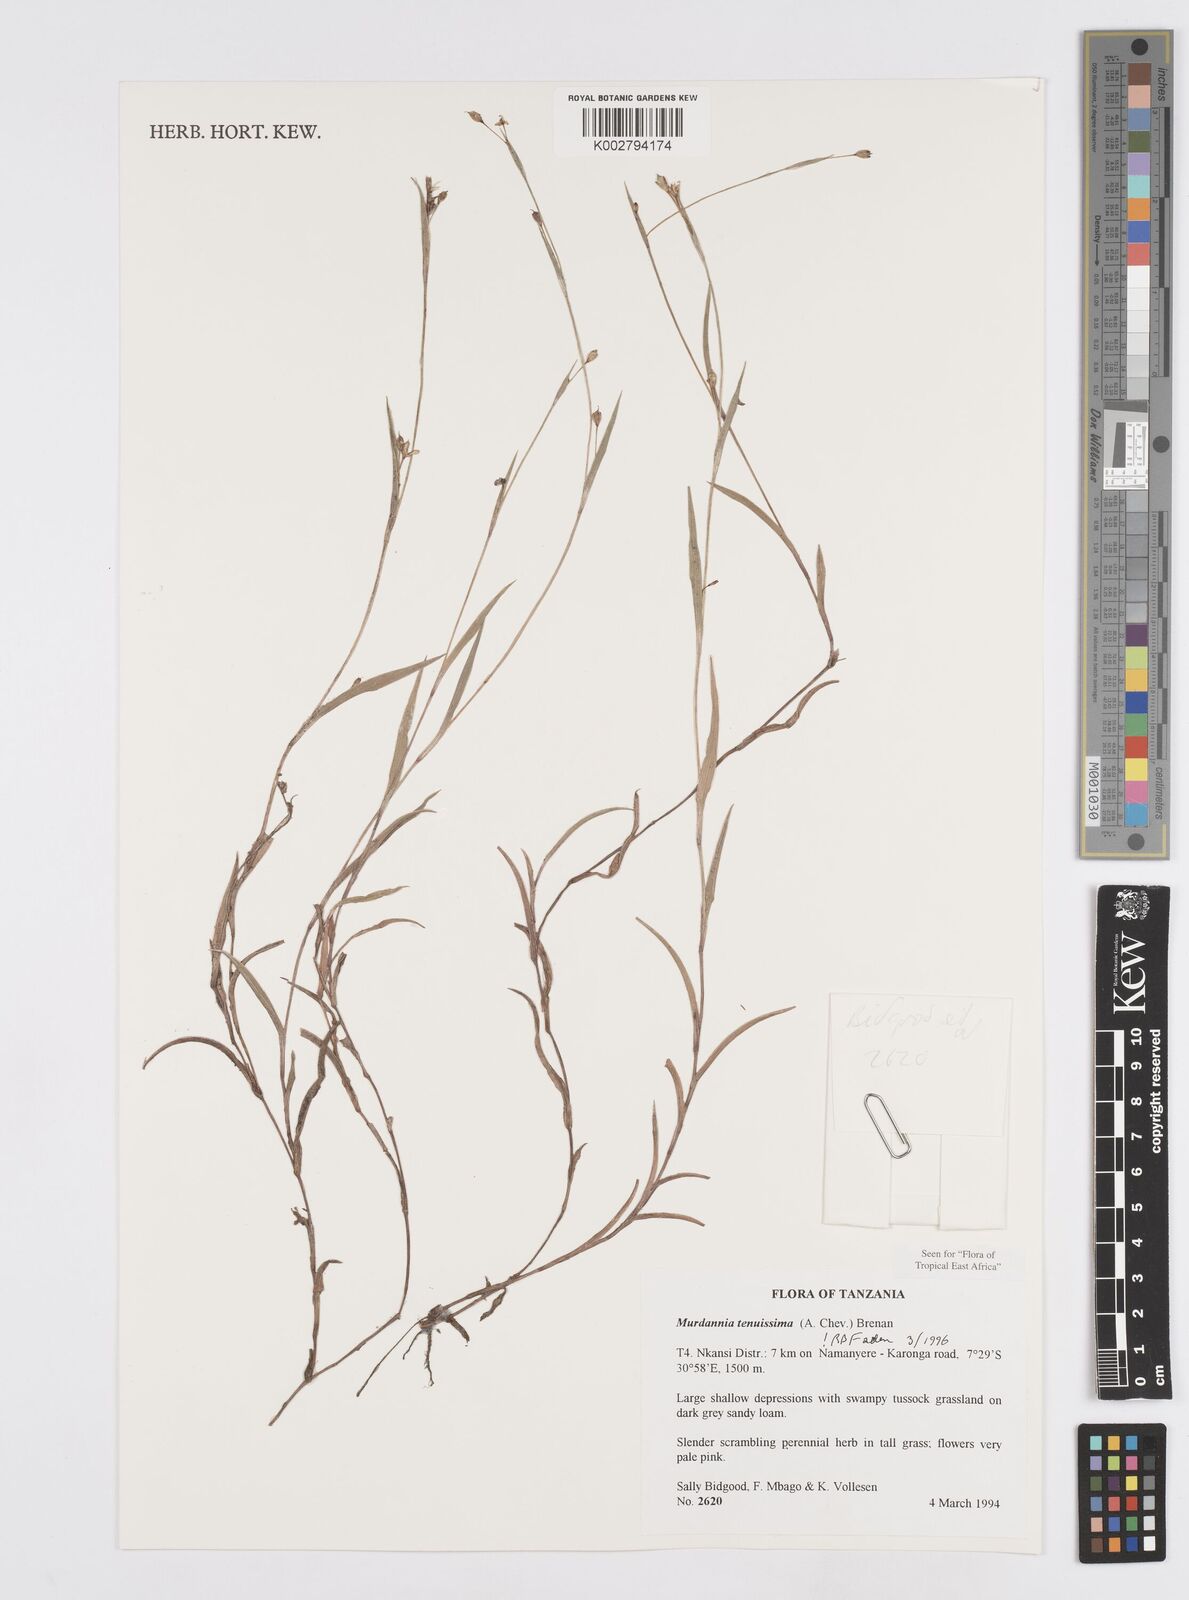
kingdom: Plantae
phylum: Tracheophyta
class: Liliopsida
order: Commelinales
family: Commelinaceae
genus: Murdannia
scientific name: Murdannia tenuissima
